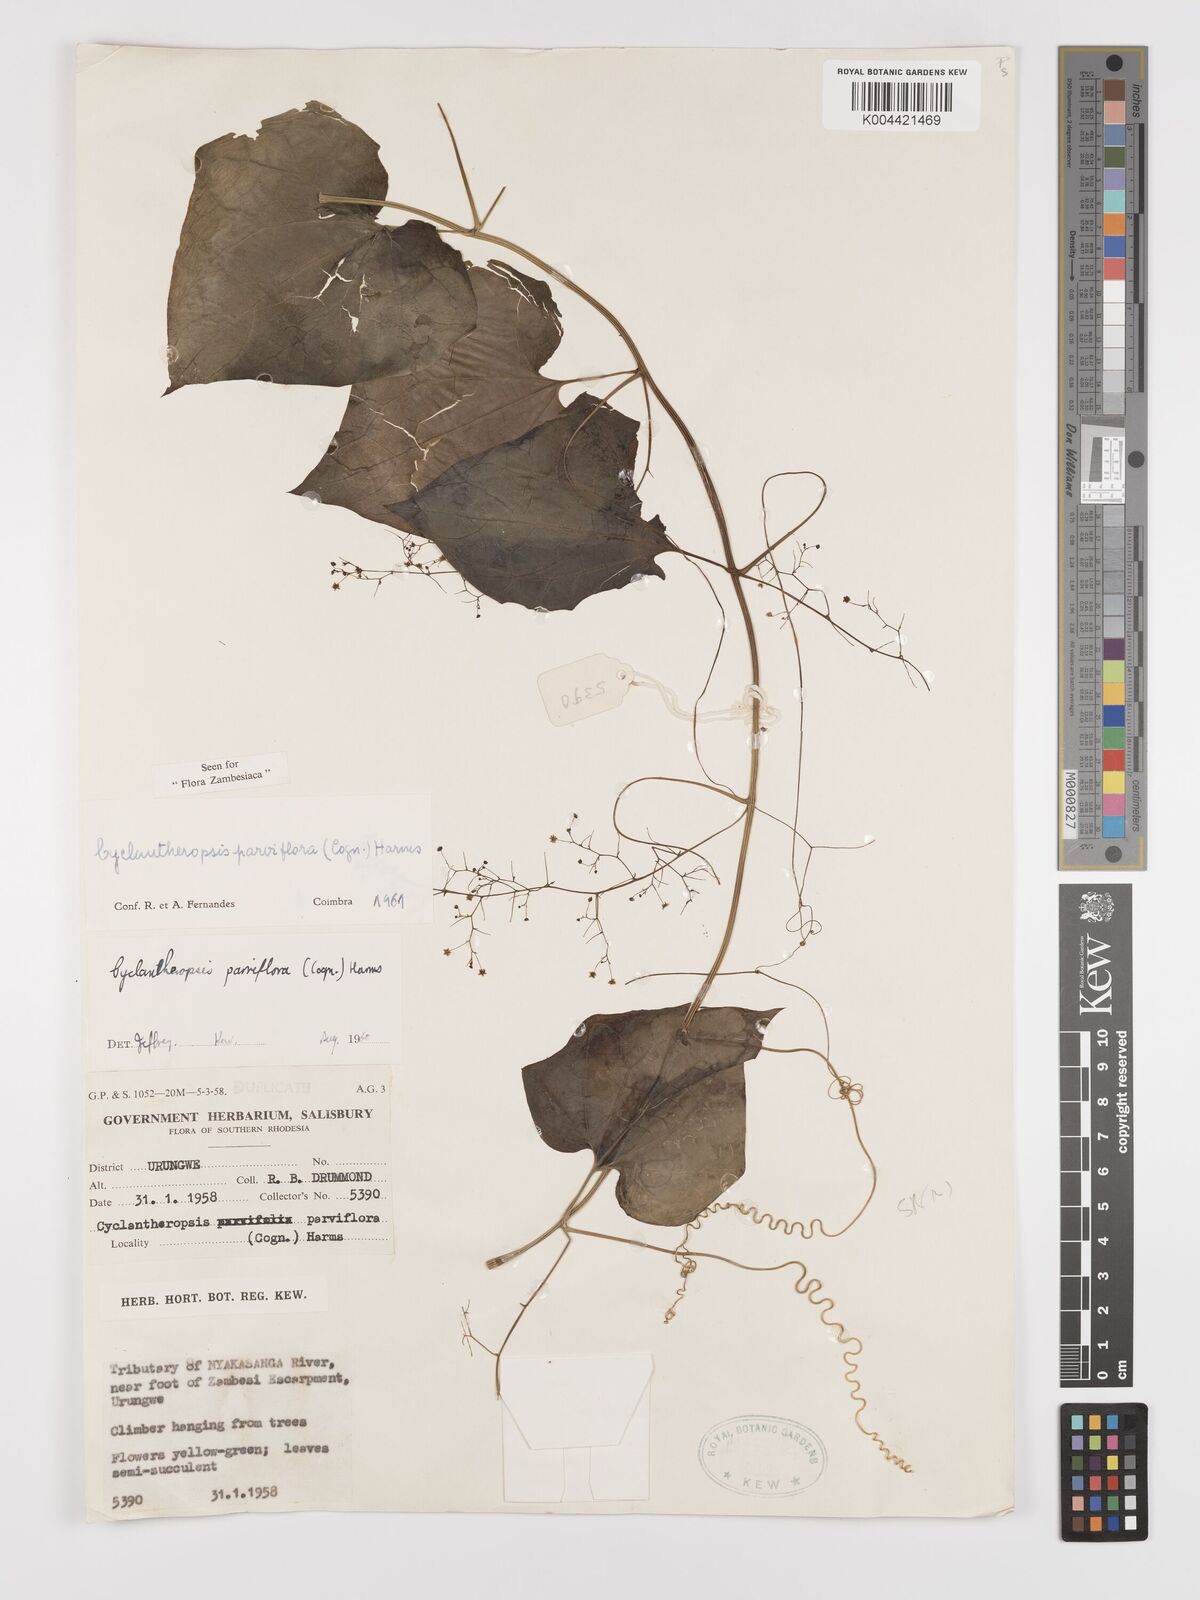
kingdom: Plantae
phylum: Tracheophyta
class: Magnoliopsida
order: Cucurbitales
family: Cucurbitaceae
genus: Cyclantheropsis
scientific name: Cyclantheropsis parviflora
